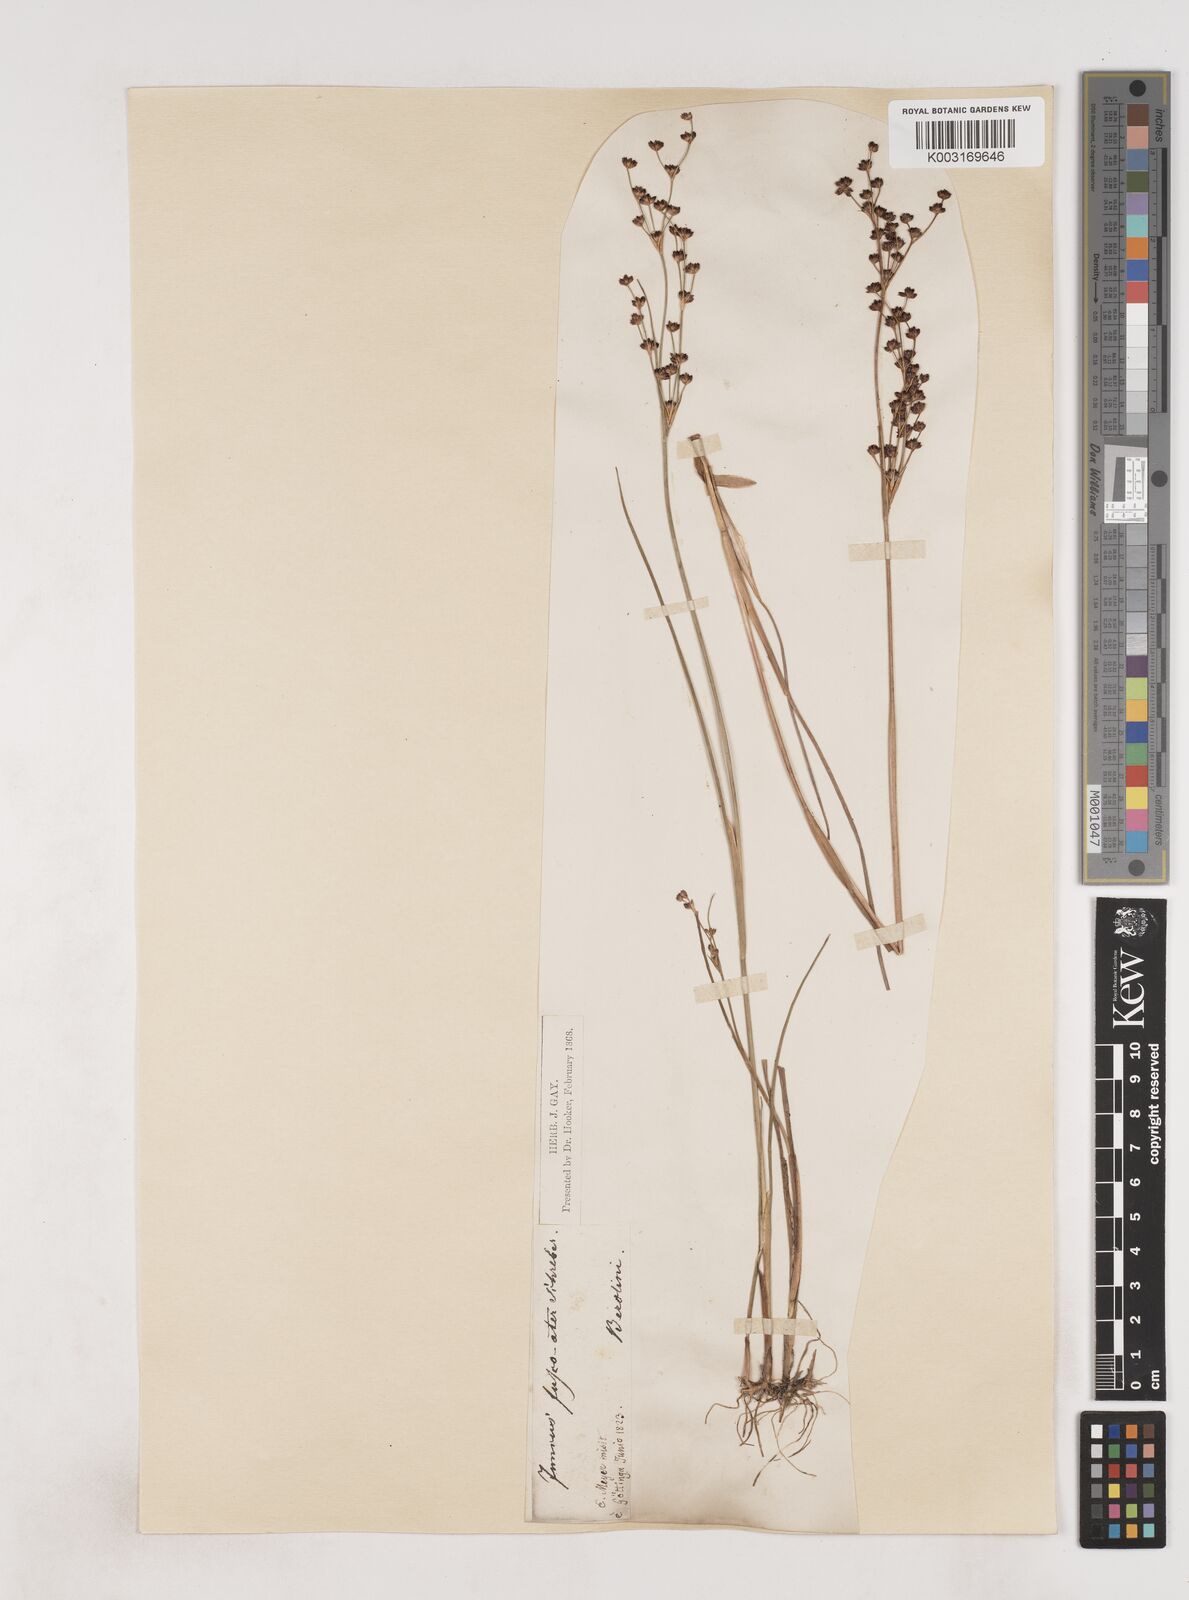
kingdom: Plantae
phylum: Tracheophyta
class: Liliopsida
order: Poales
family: Juncaceae
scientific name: Juncaceae
